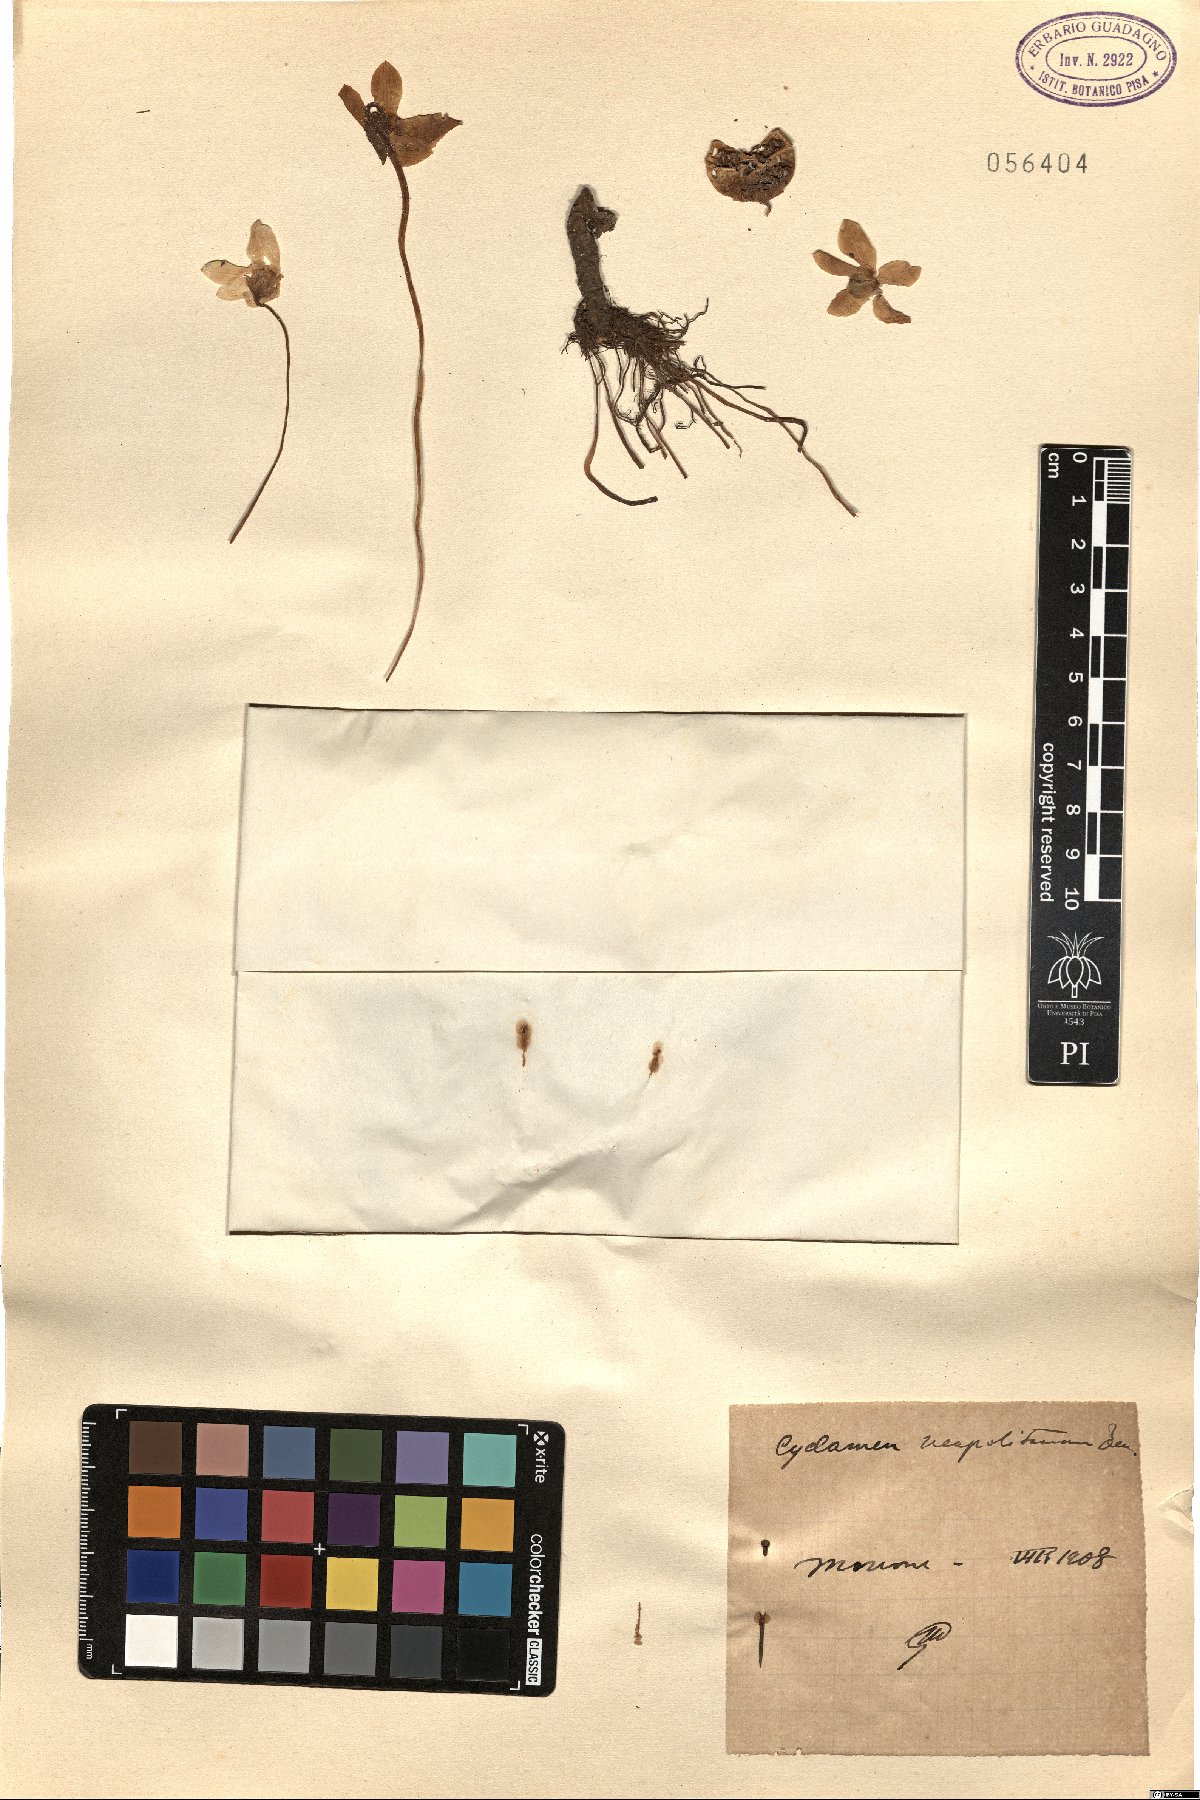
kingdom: Plantae
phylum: Tracheophyta
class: Magnoliopsida
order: Ericales
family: Primulaceae
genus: Cyclamen
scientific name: Cyclamen hederifolium
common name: Sowbread
